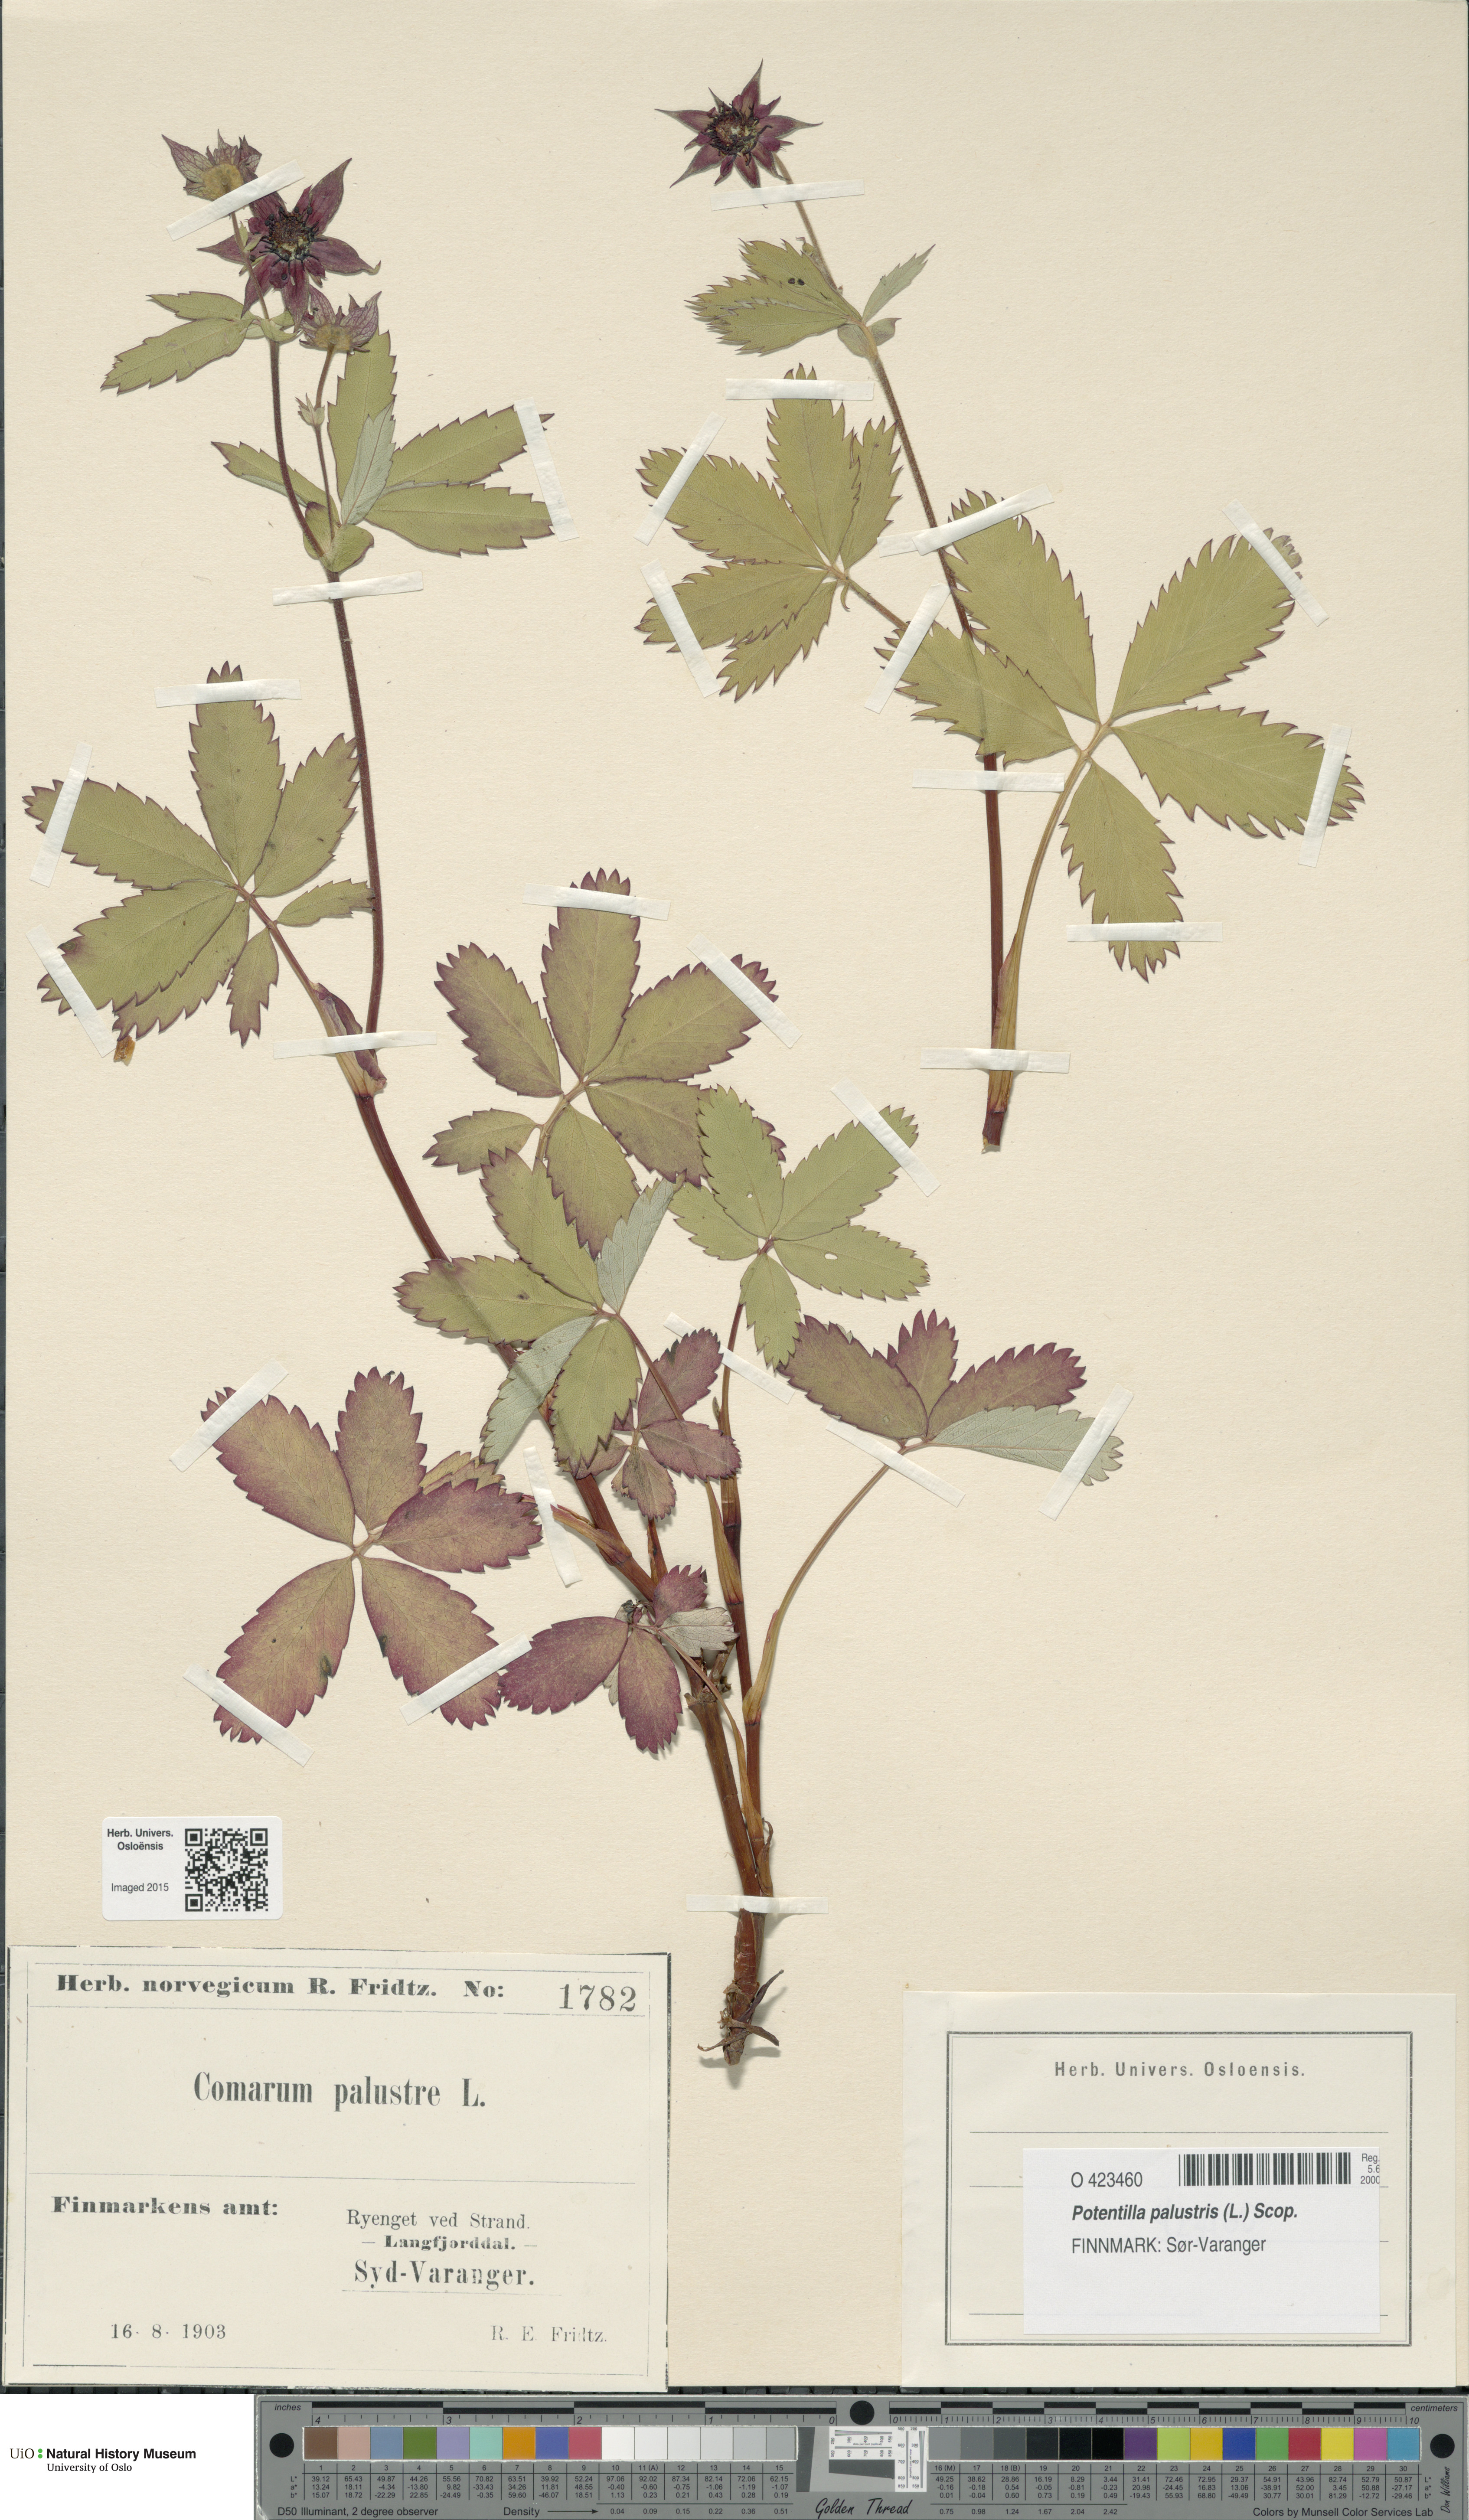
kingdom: Plantae
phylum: Tracheophyta
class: Magnoliopsida
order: Rosales
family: Rosaceae
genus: Comarum
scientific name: Comarum palustre
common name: Marsh cinquefoil
